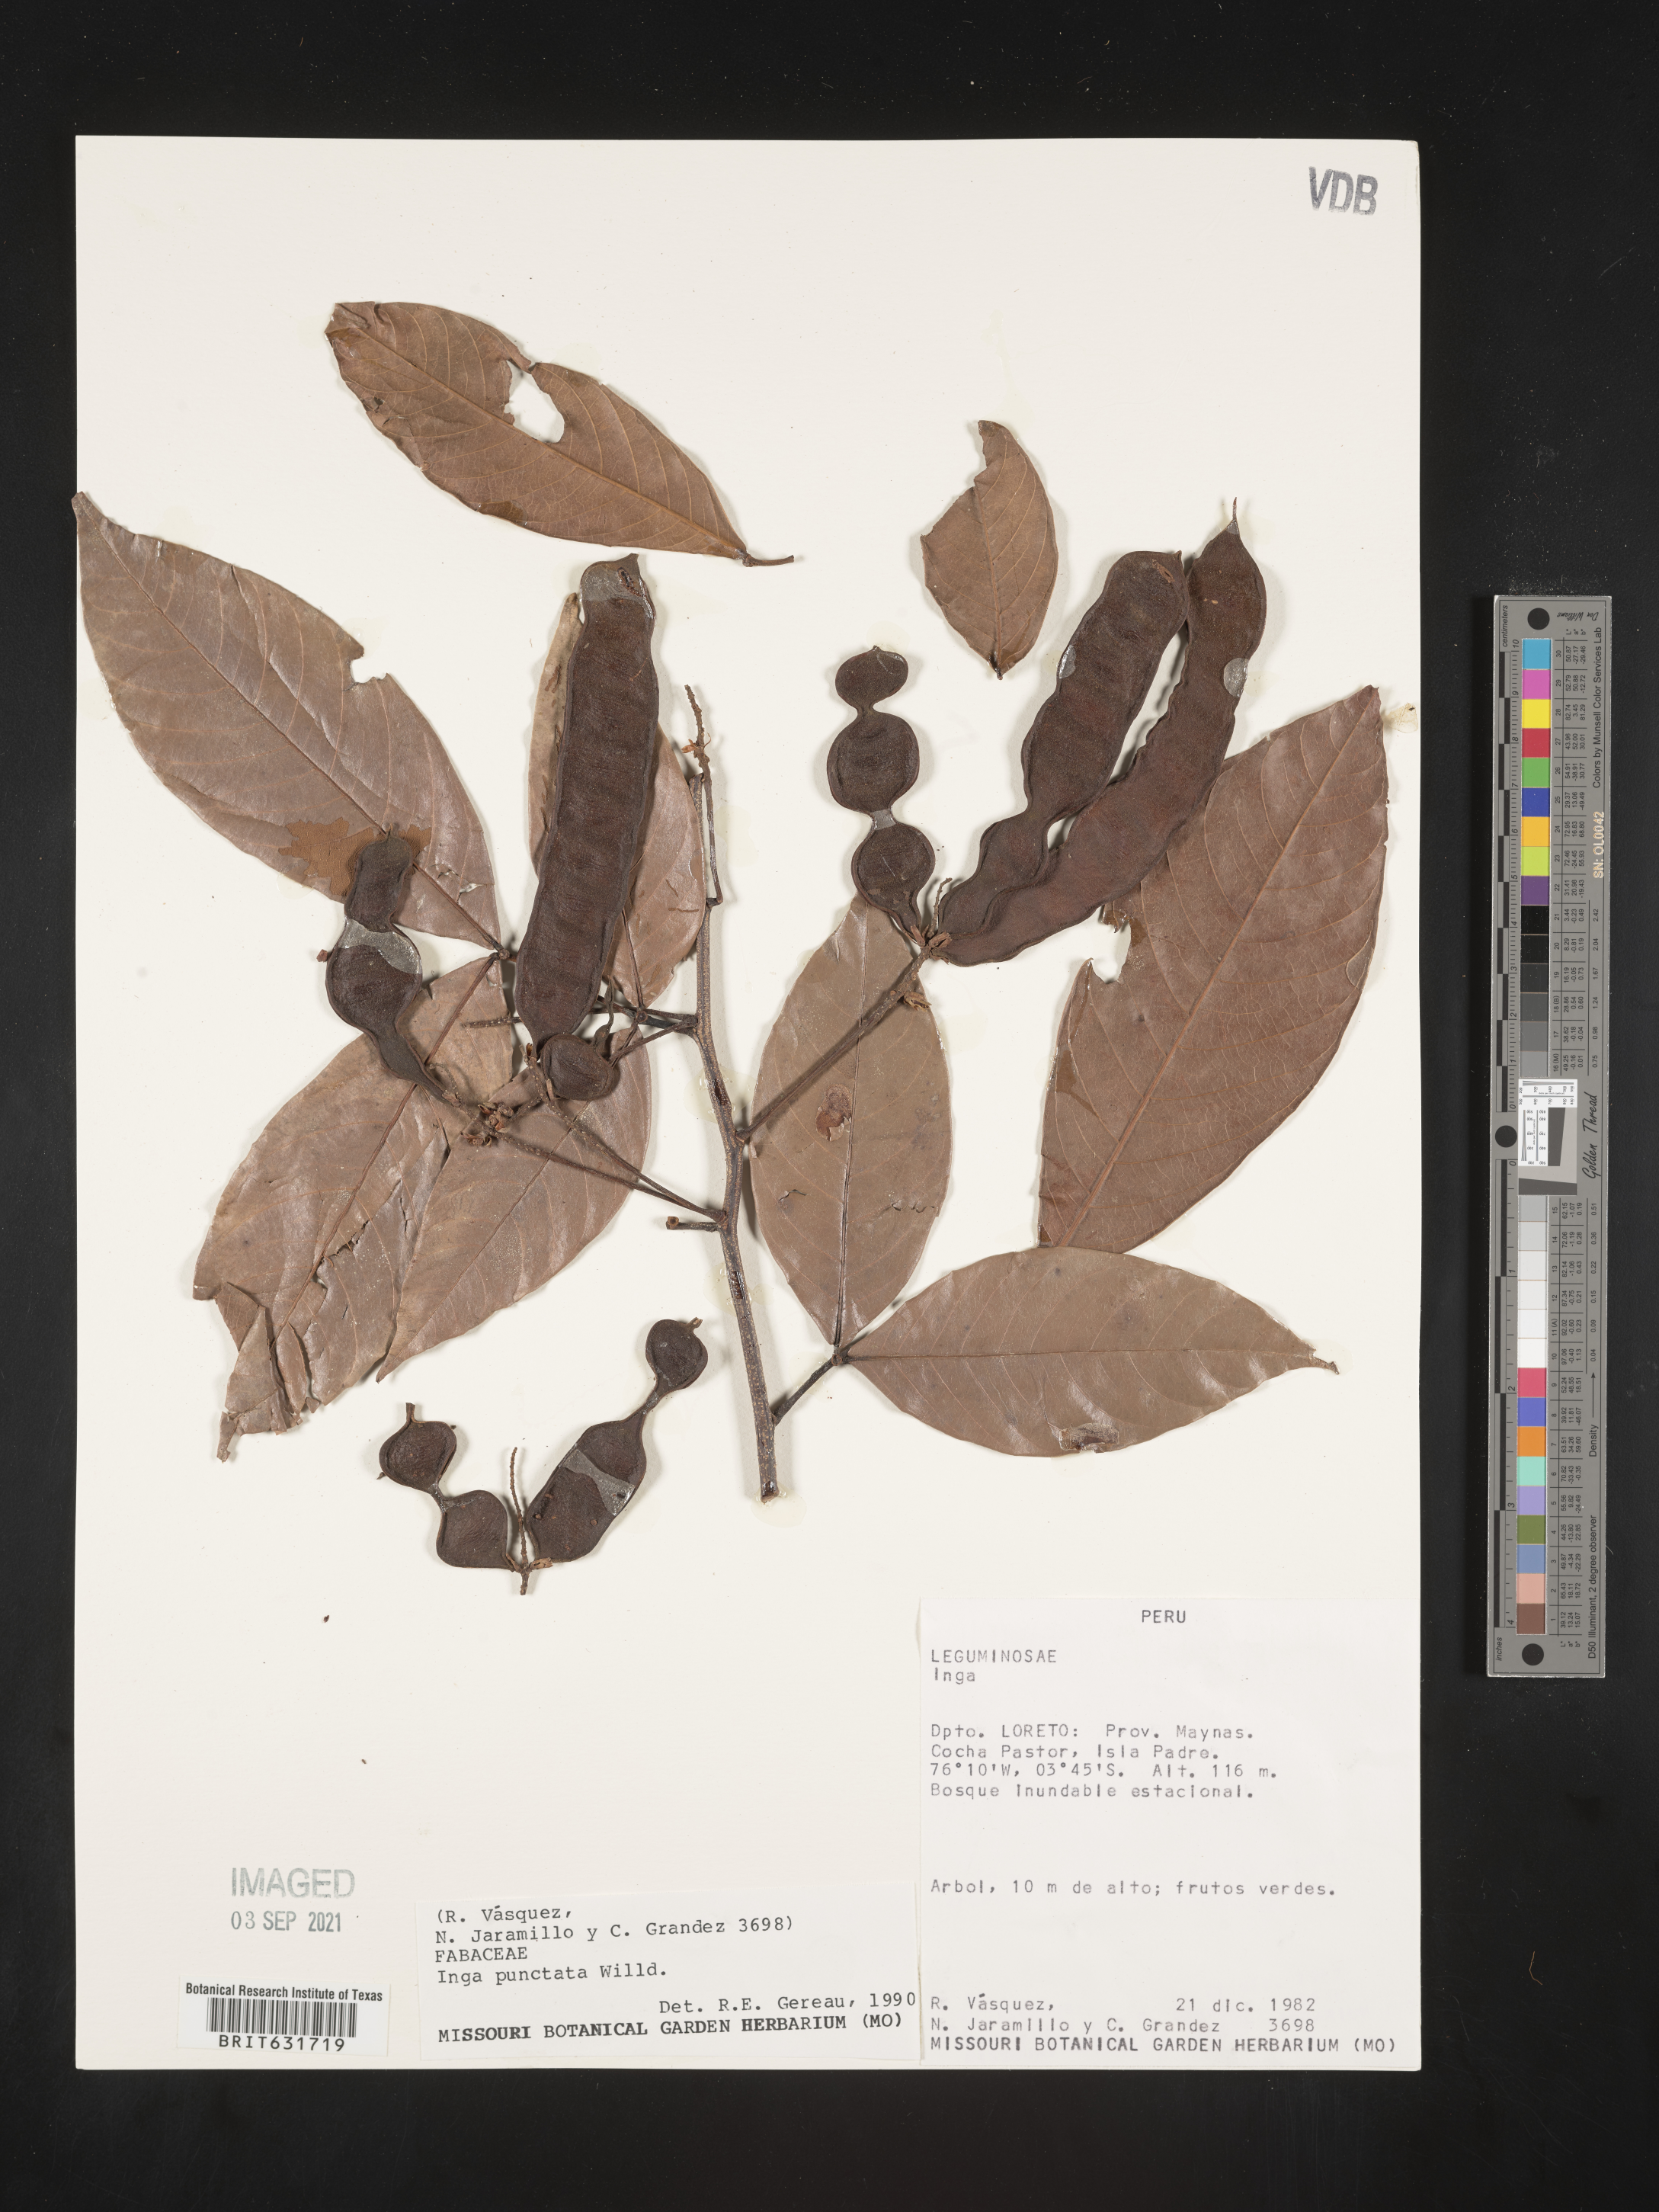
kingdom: Plantae
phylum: Tracheophyta
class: Magnoliopsida
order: Fabales
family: Fabaceae
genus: Inga
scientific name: Inga
